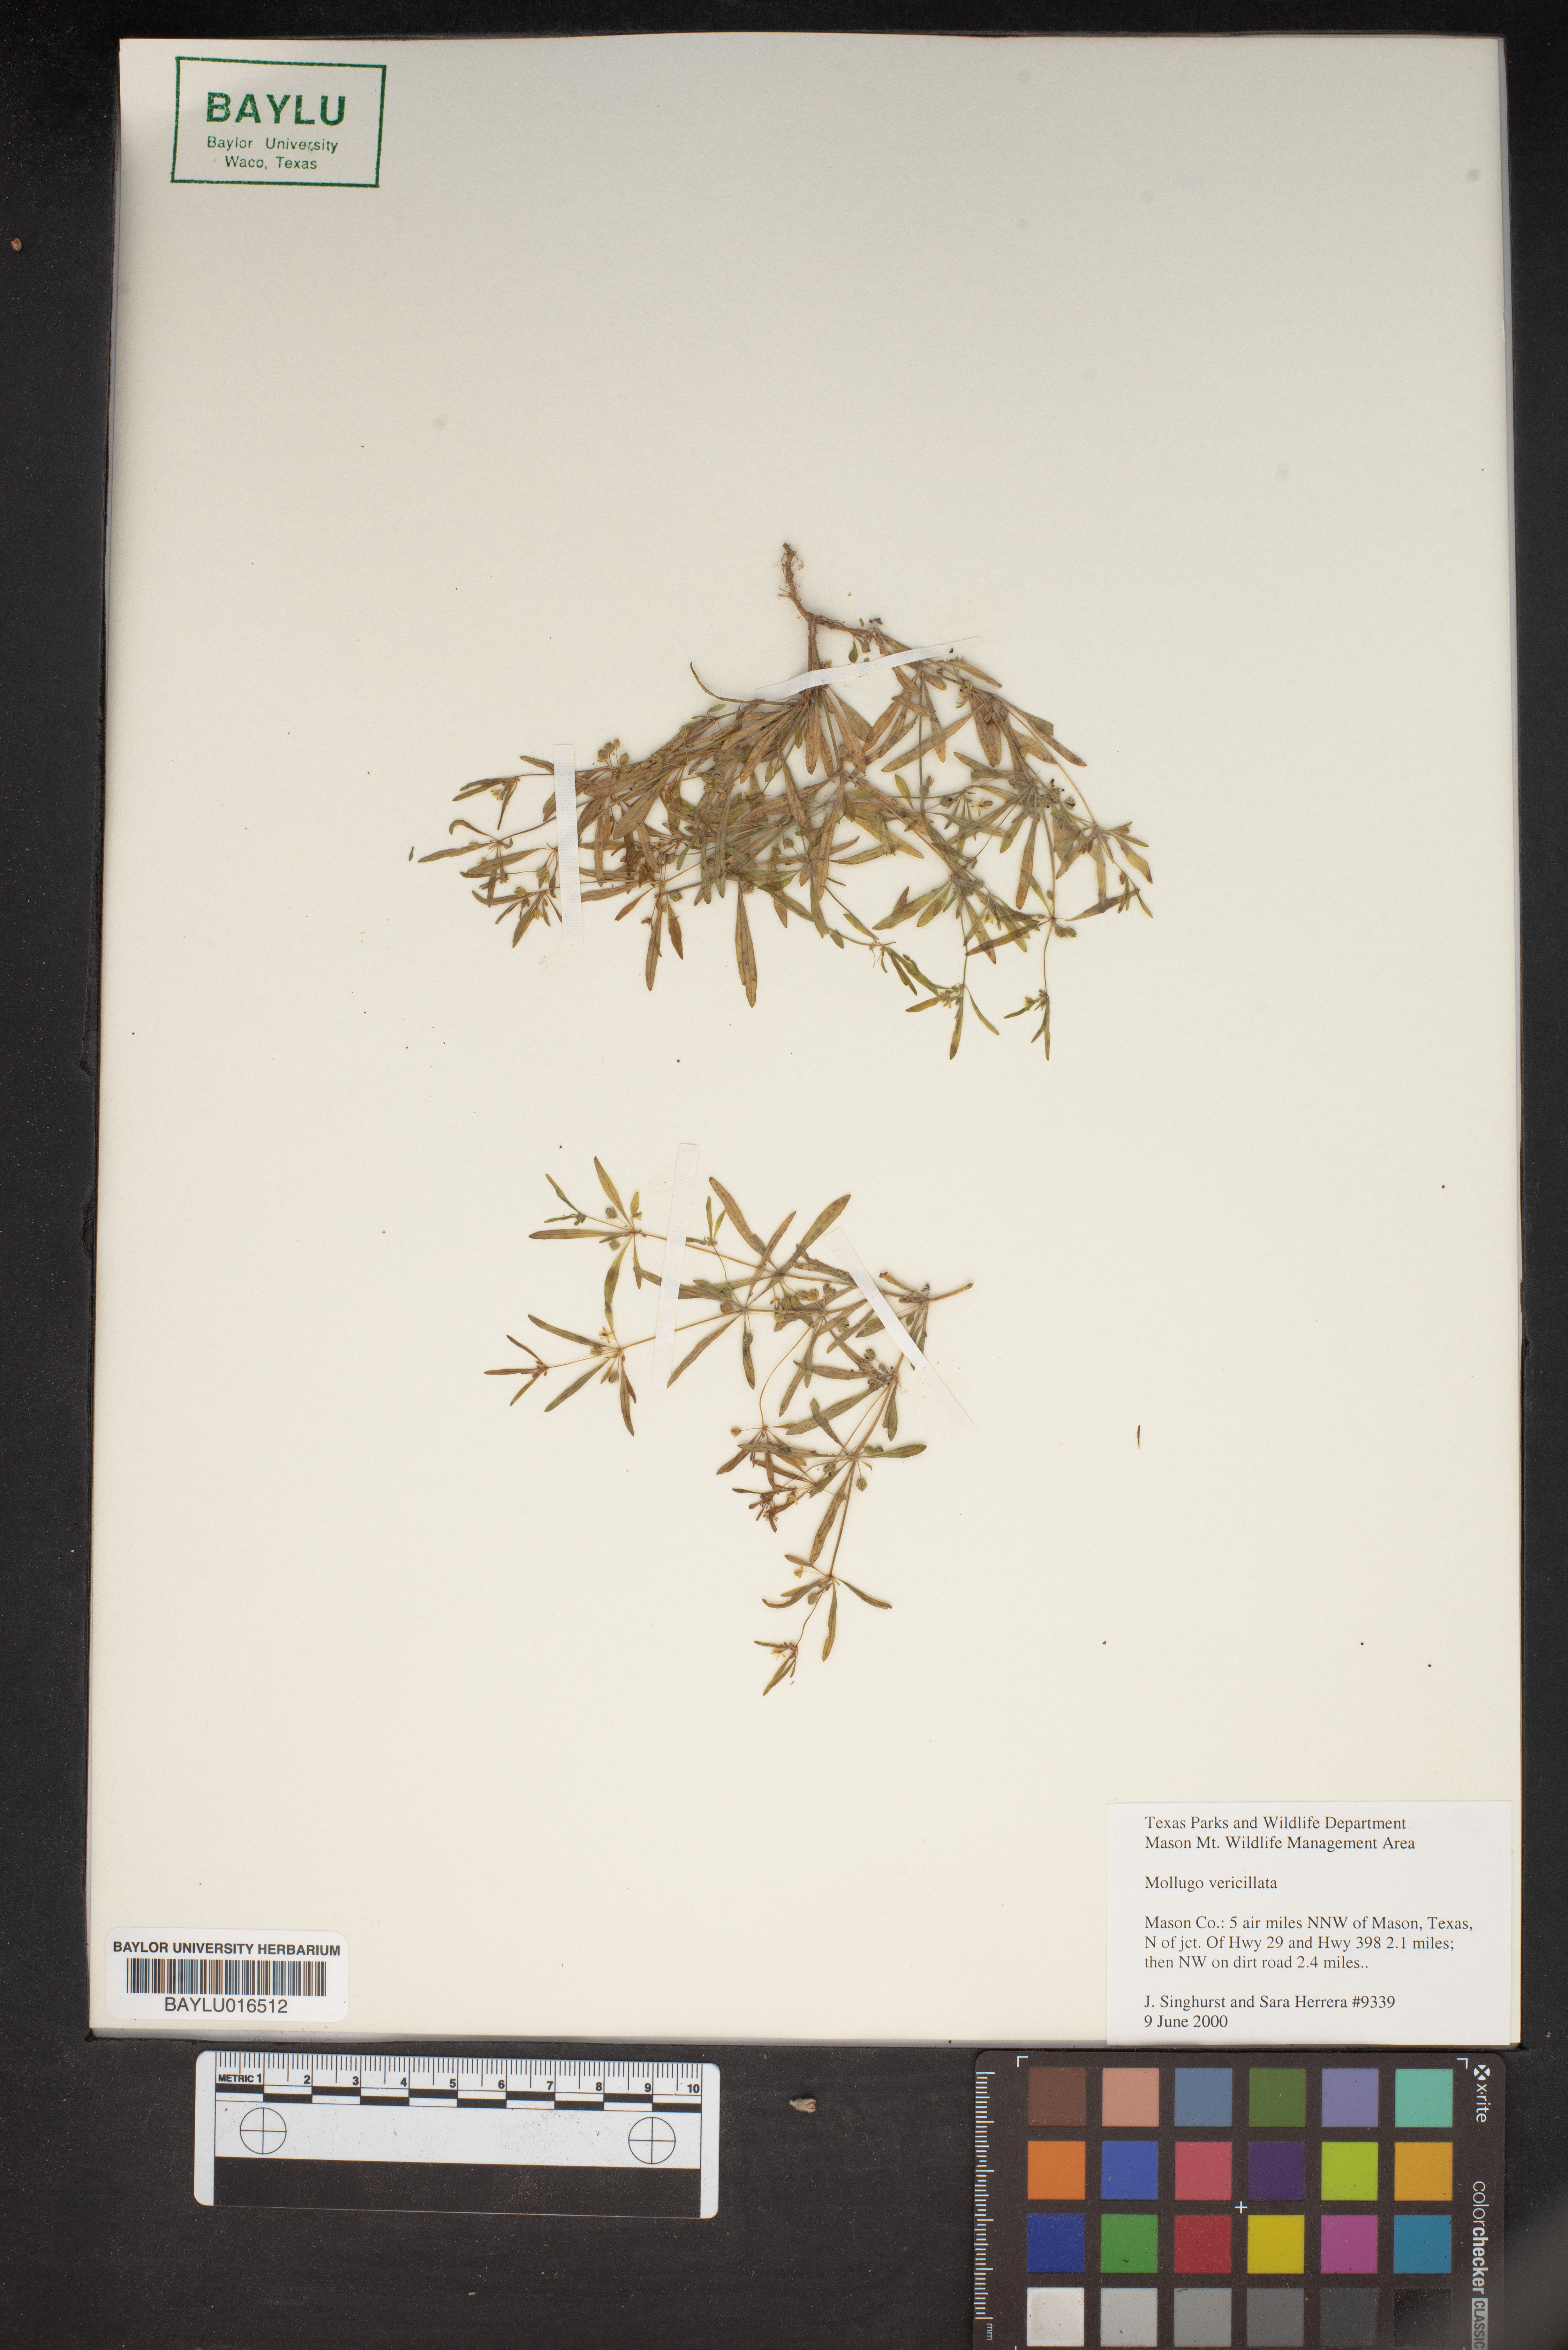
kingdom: Plantae
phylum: Tracheophyta
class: Magnoliopsida
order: Caryophyllales
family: Molluginaceae
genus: Mollugo
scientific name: Mollugo verticillata
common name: Green carpetweed
